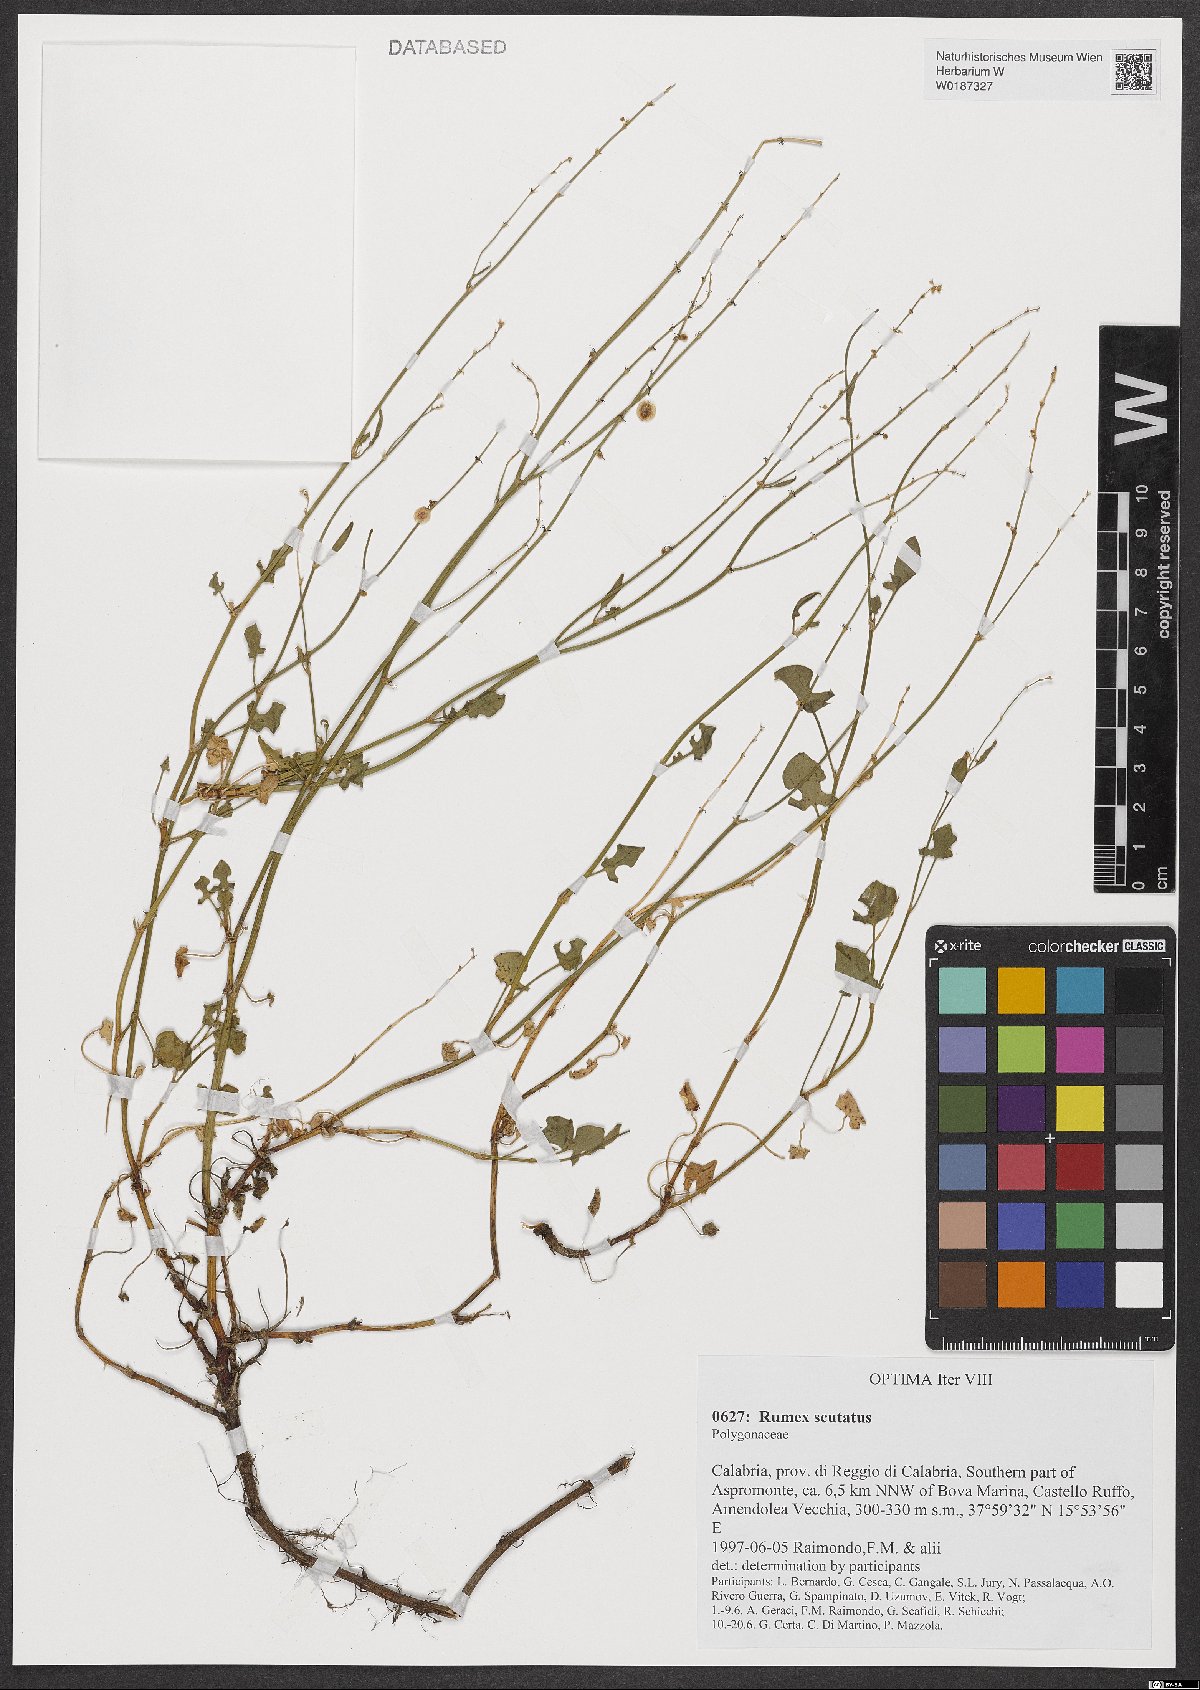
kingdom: Plantae
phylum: Tracheophyta
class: Magnoliopsida
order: Caryophyllales
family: Polygonaceae
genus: Rumex
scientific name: Rumex scutatus
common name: French sorrel
